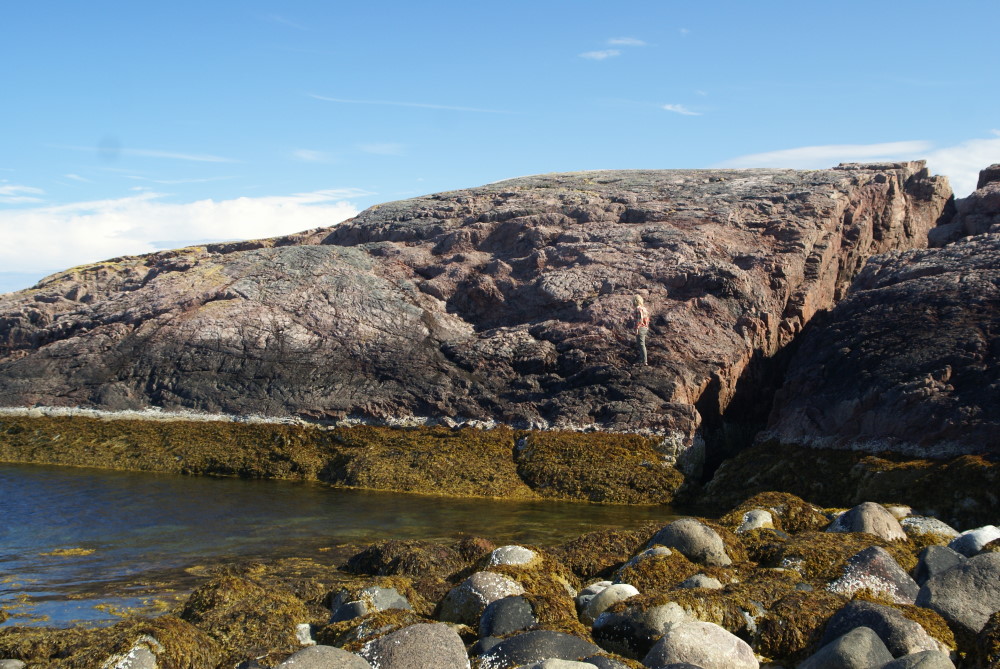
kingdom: Plantae
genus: Fucus
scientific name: Fucus
